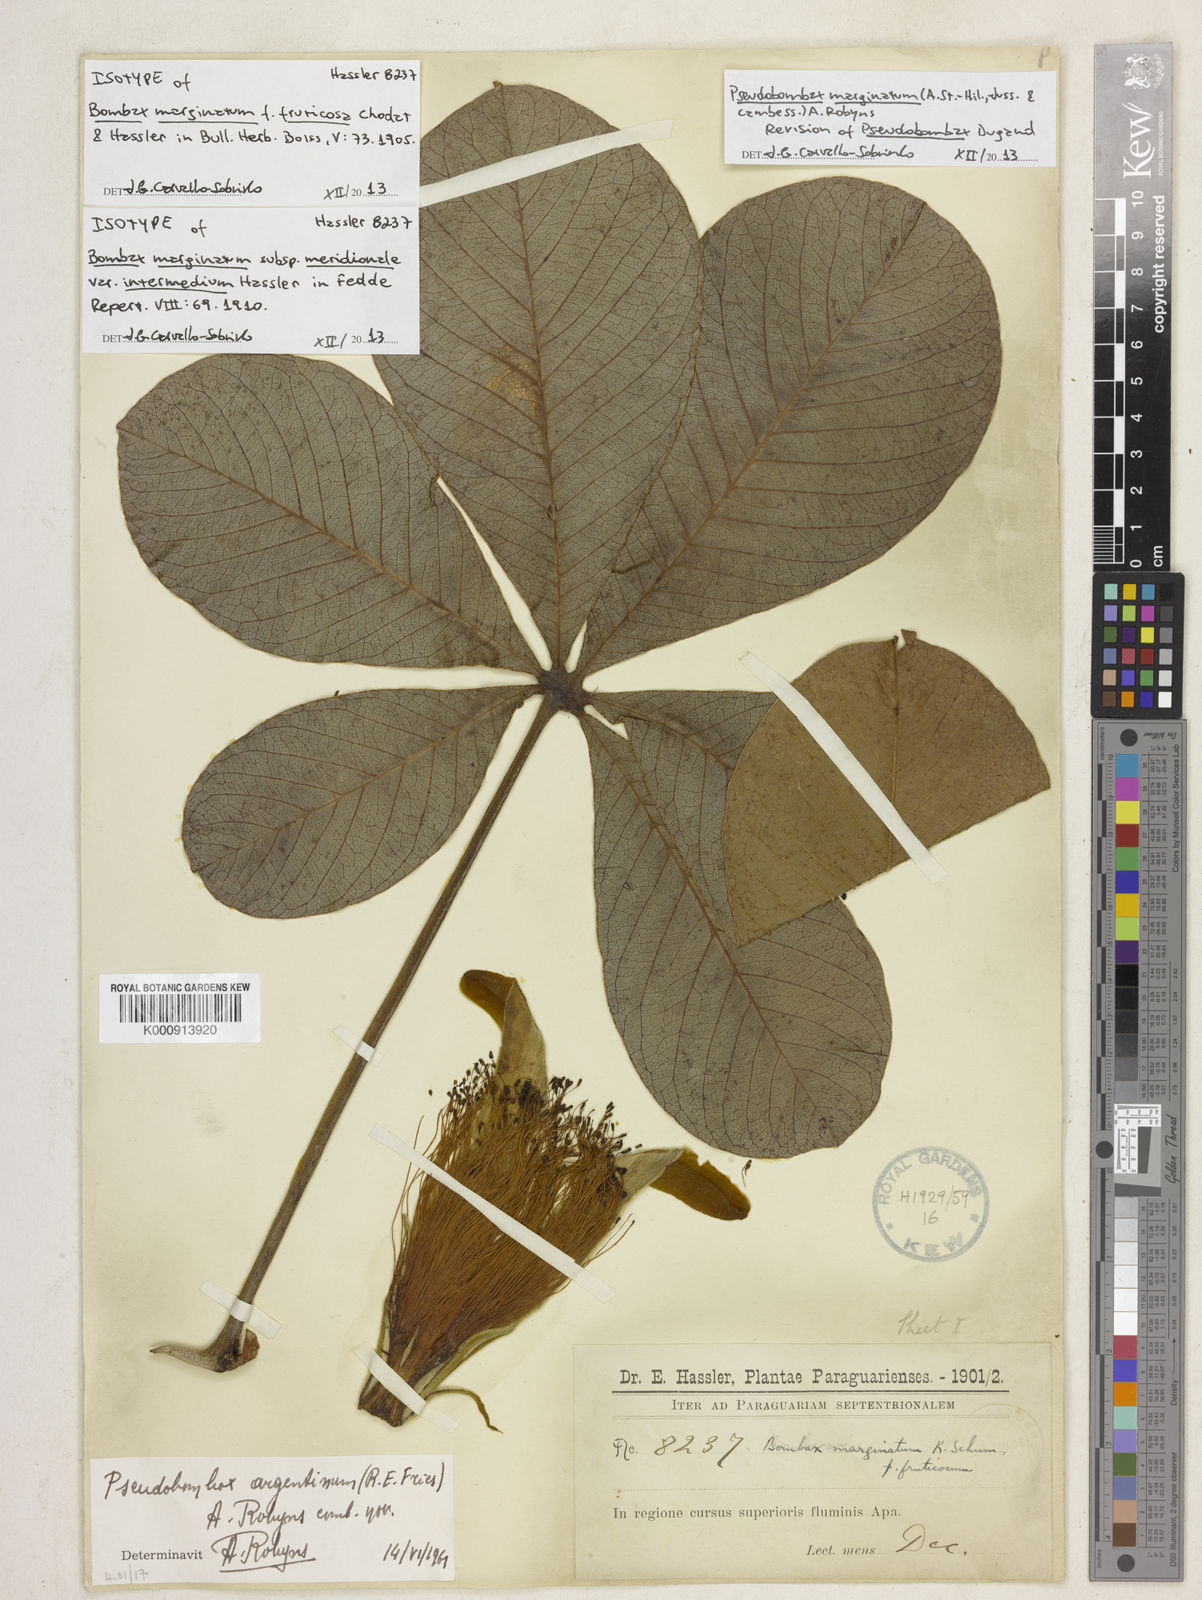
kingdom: Plantae
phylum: Tracheophyta
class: Magnoliopsida
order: Malvales
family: Malvaceae
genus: Pseudobombax
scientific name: Pseudobombax
